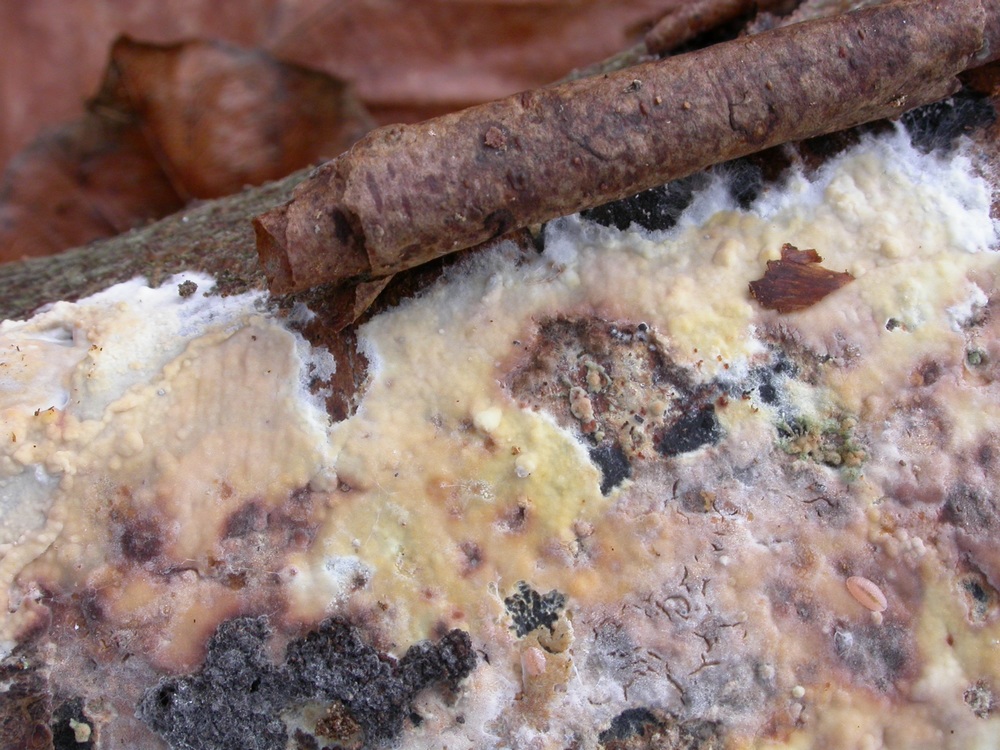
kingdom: Fungi
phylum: Basidiomycota
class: Agaricomycetes
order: Hymenochaetales
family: Rickenellaceae
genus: Peniophorella
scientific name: Peniophorella pubera
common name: dunet kalkskind
